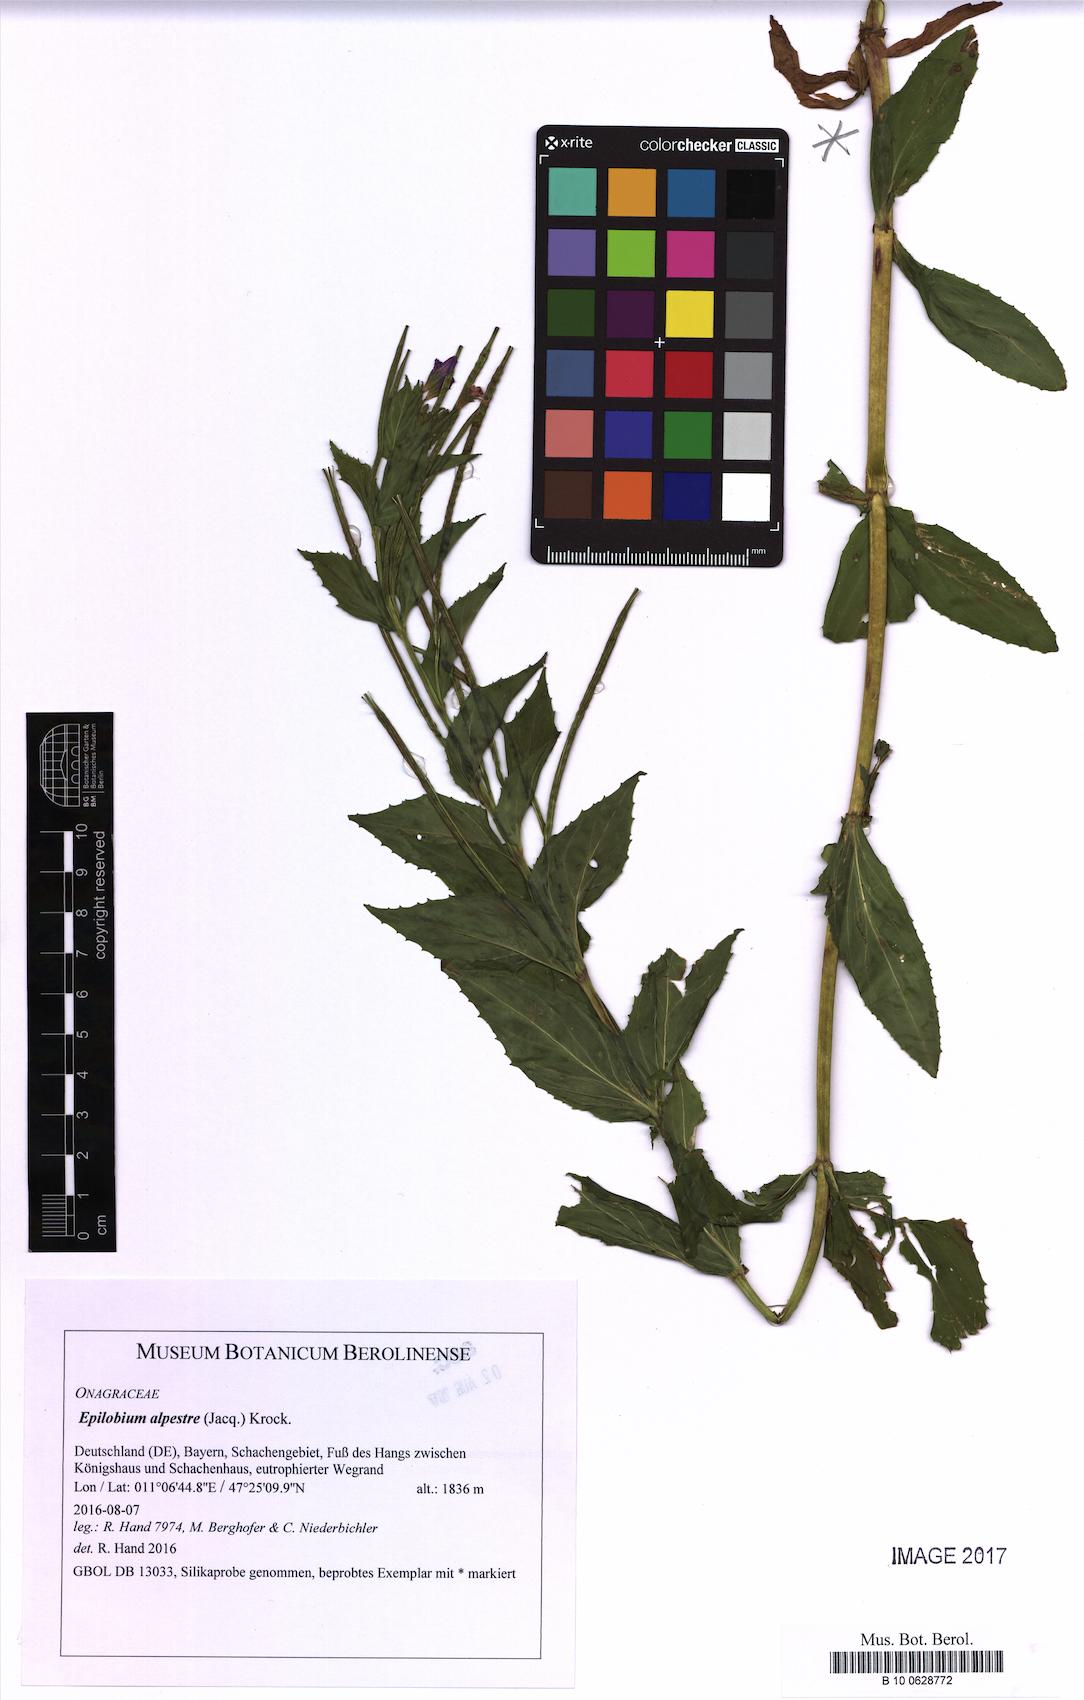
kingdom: Plantae
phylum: Tracheophyta
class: Magnoliopsida
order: Myrtales
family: Onagraceae
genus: Epilobium
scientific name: Epilobium alpestre
